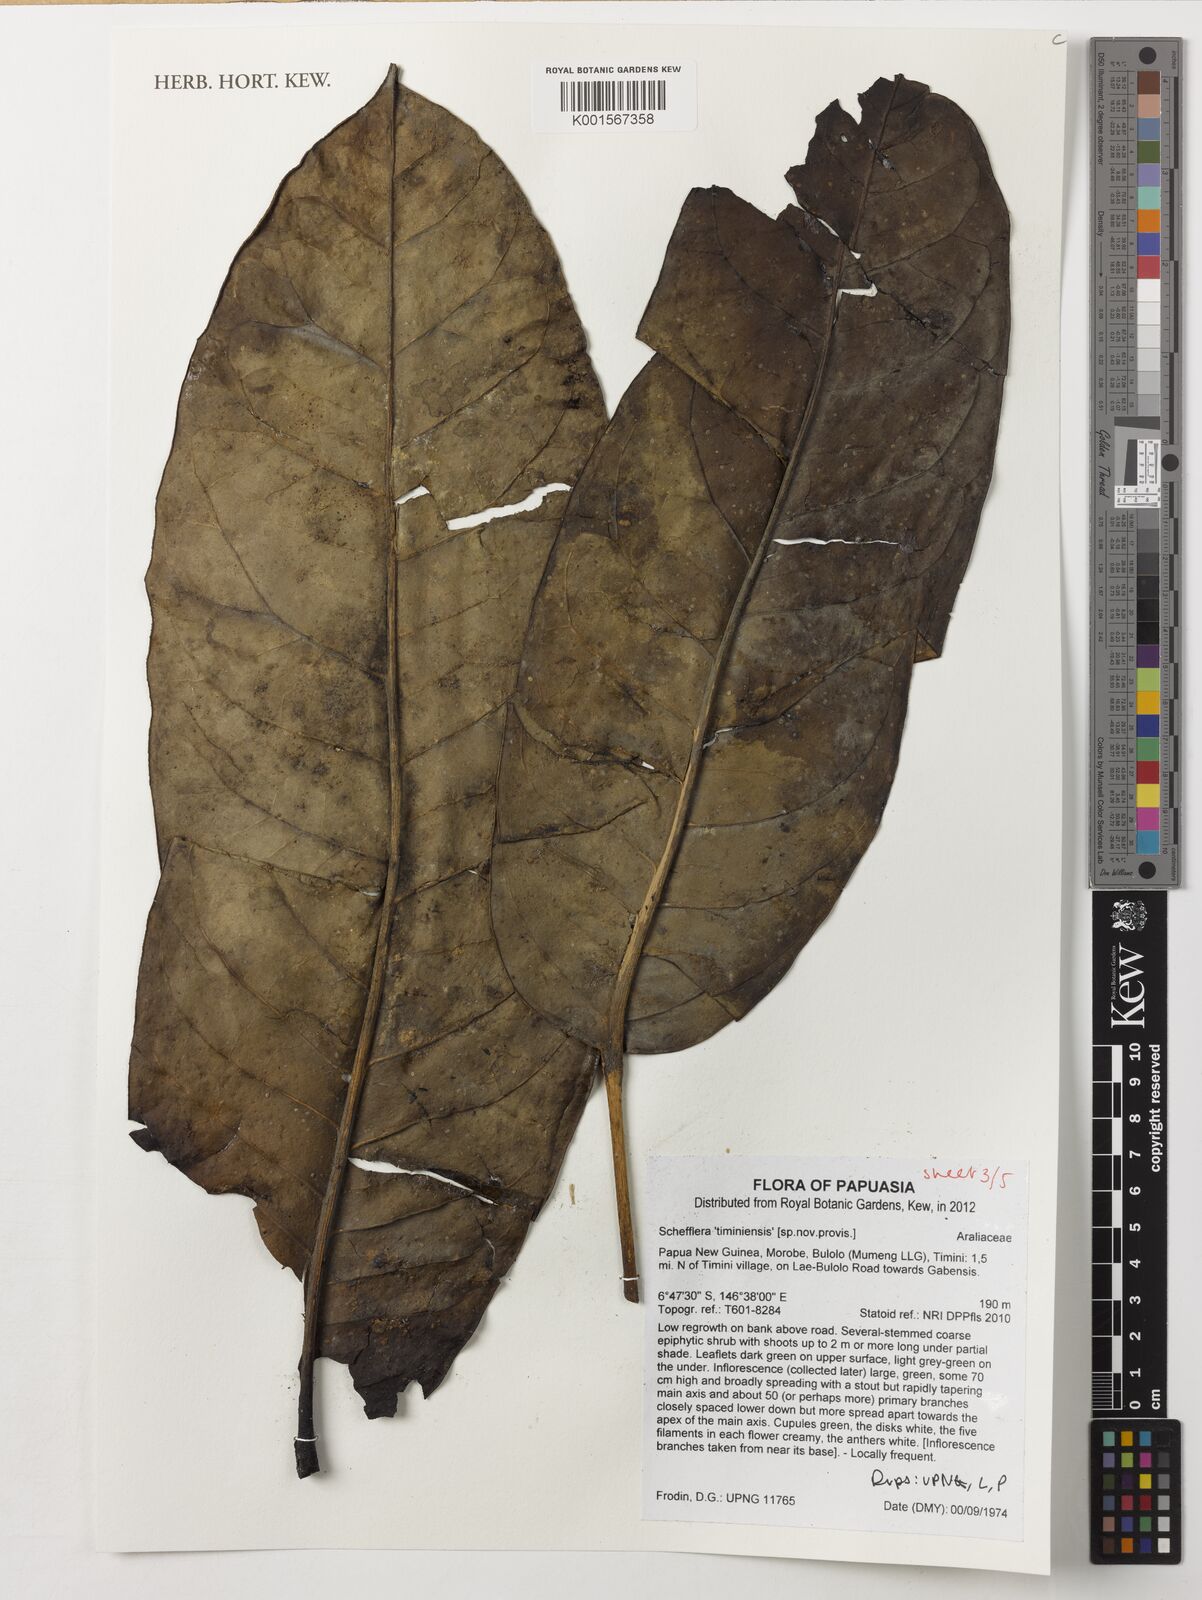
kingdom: Plantae
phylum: Tracheophyta
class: Magnoliopsida
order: Apiales
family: Araliaceae
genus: Schefflera
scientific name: Schefflera
